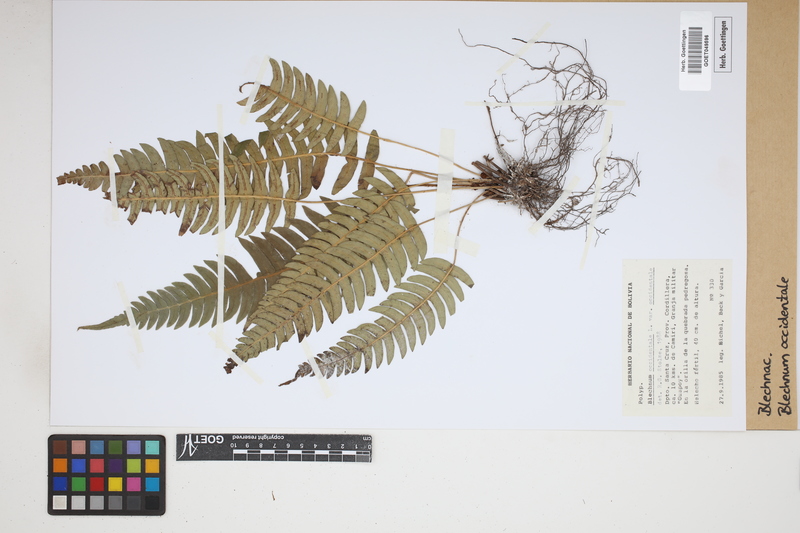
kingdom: Plantae
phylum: Tracheophyta
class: Polypodiopsida
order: Polypodiales
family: Blechnaceae
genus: Blechnum
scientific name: Blechnum occidentale
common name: Hammock fern
